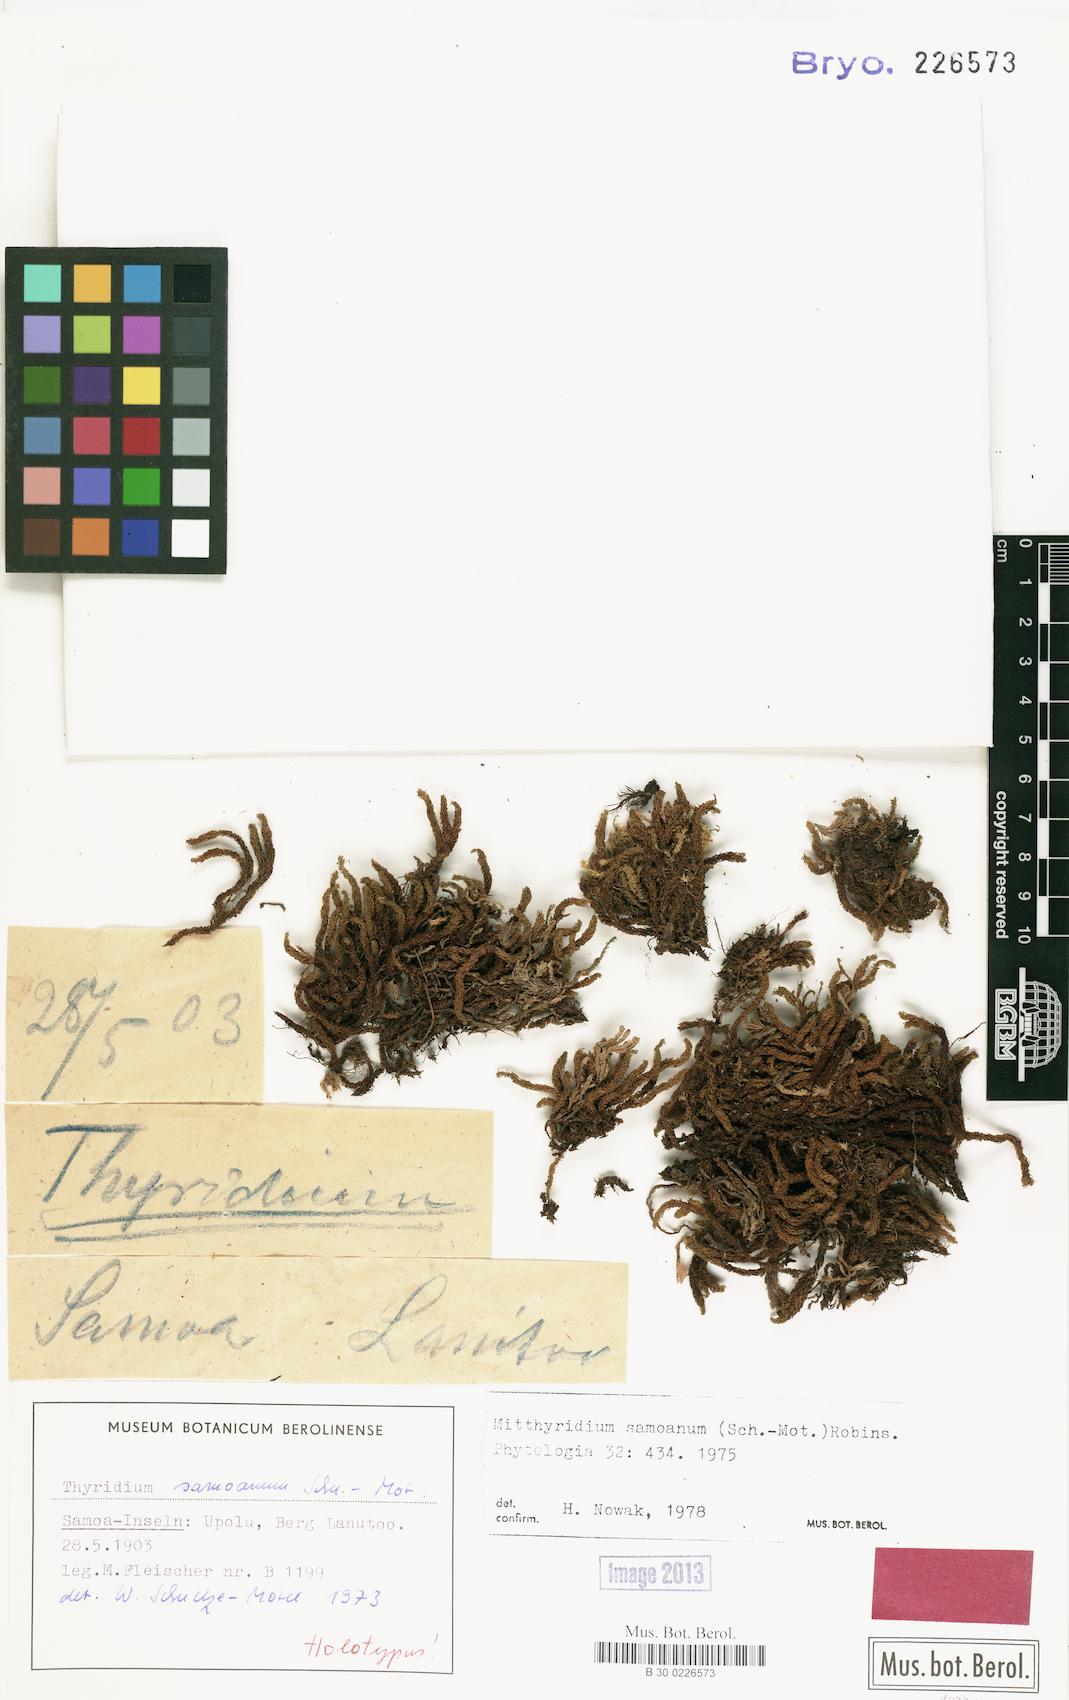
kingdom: Plantae
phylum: Bryophyta
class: Bryopsida
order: Dicranales
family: Calymperaceae
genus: Mitthyridium
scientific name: Mitthyridium fasciculatum
